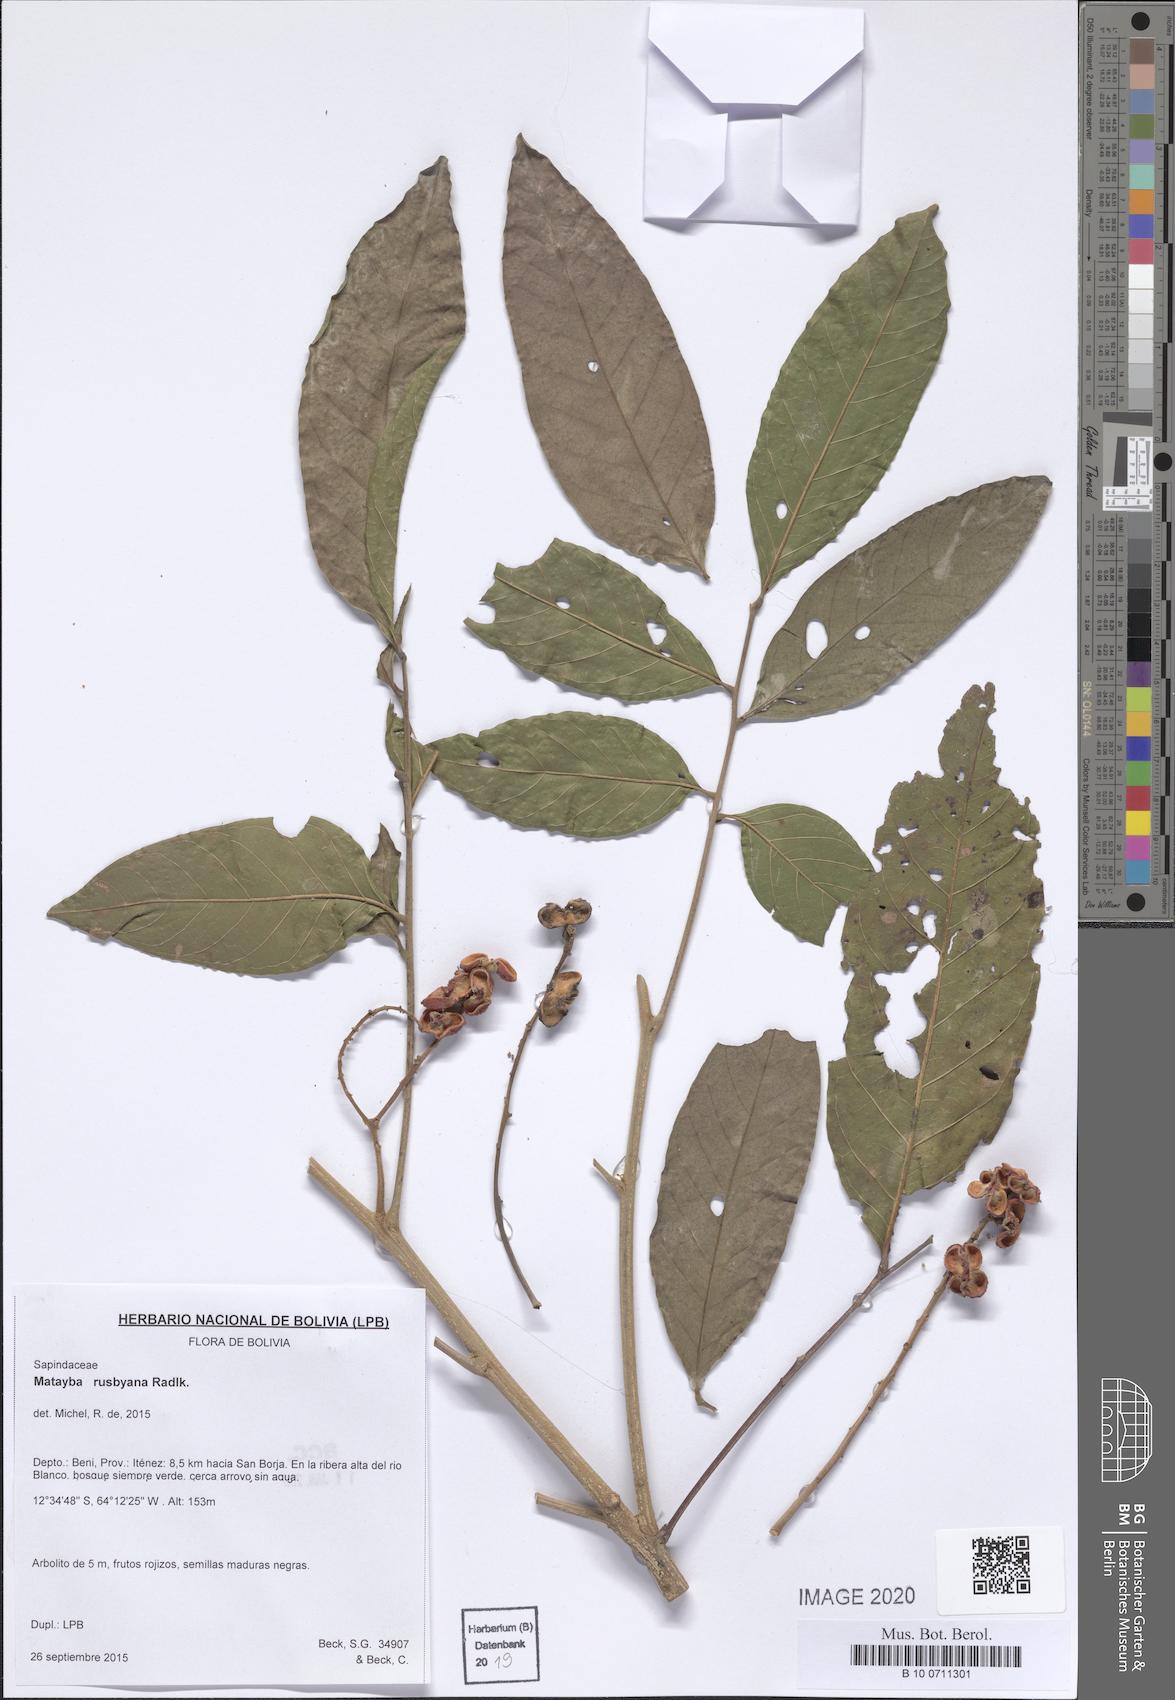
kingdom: Plantae
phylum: Tracheophyta
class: Magnoliopsida
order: Sapindales
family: Sapindaceae
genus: Cupania
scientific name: Cupania macrostylis
